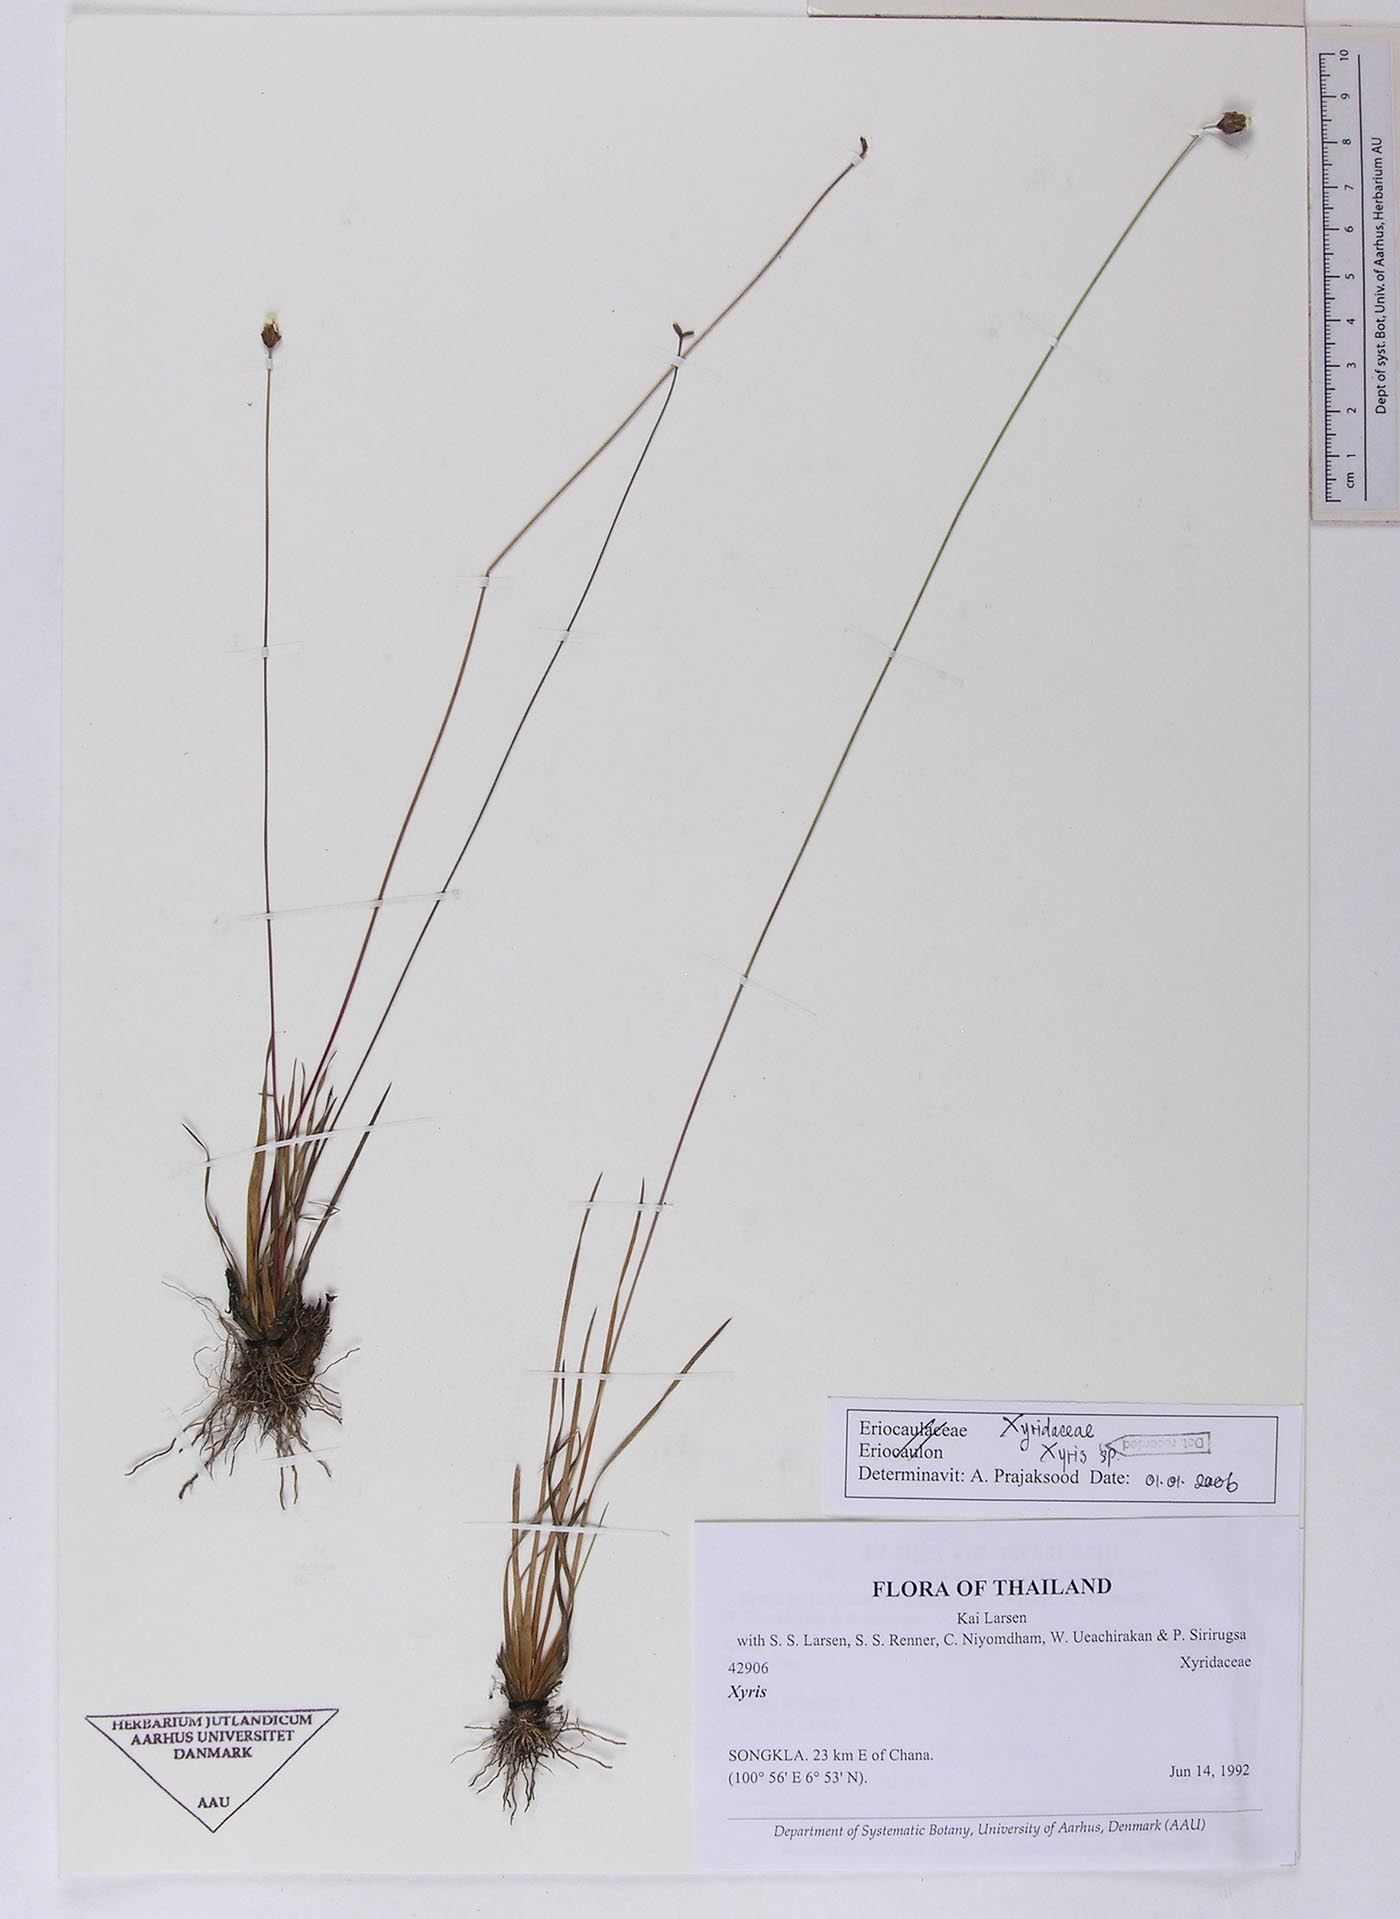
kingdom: Plantae
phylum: Tracheophyta
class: Liliopsida
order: Poales
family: Xyridaceae
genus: Xyris
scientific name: Xyris bancana
